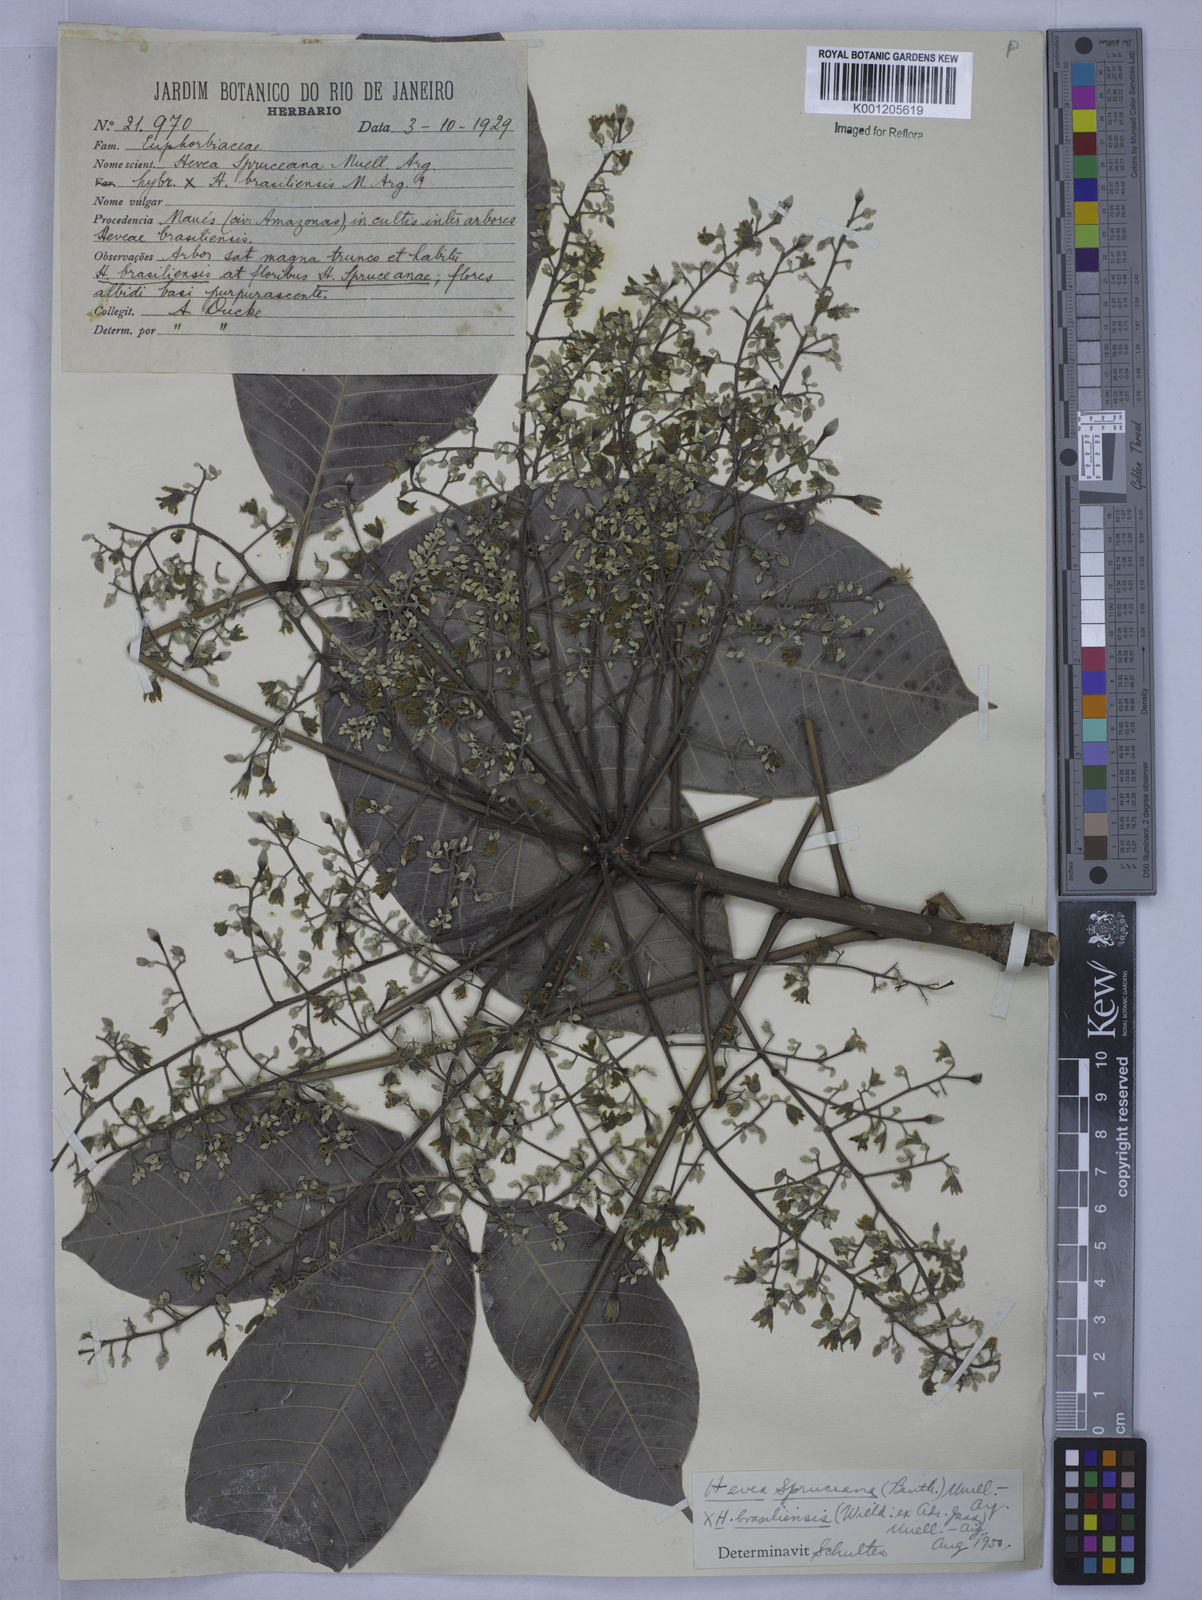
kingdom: Plantae
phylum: Tracheophyta
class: Magnoliopsida
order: Malpighiales
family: Euphorbiaceae
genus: Hevea
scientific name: Hevea
